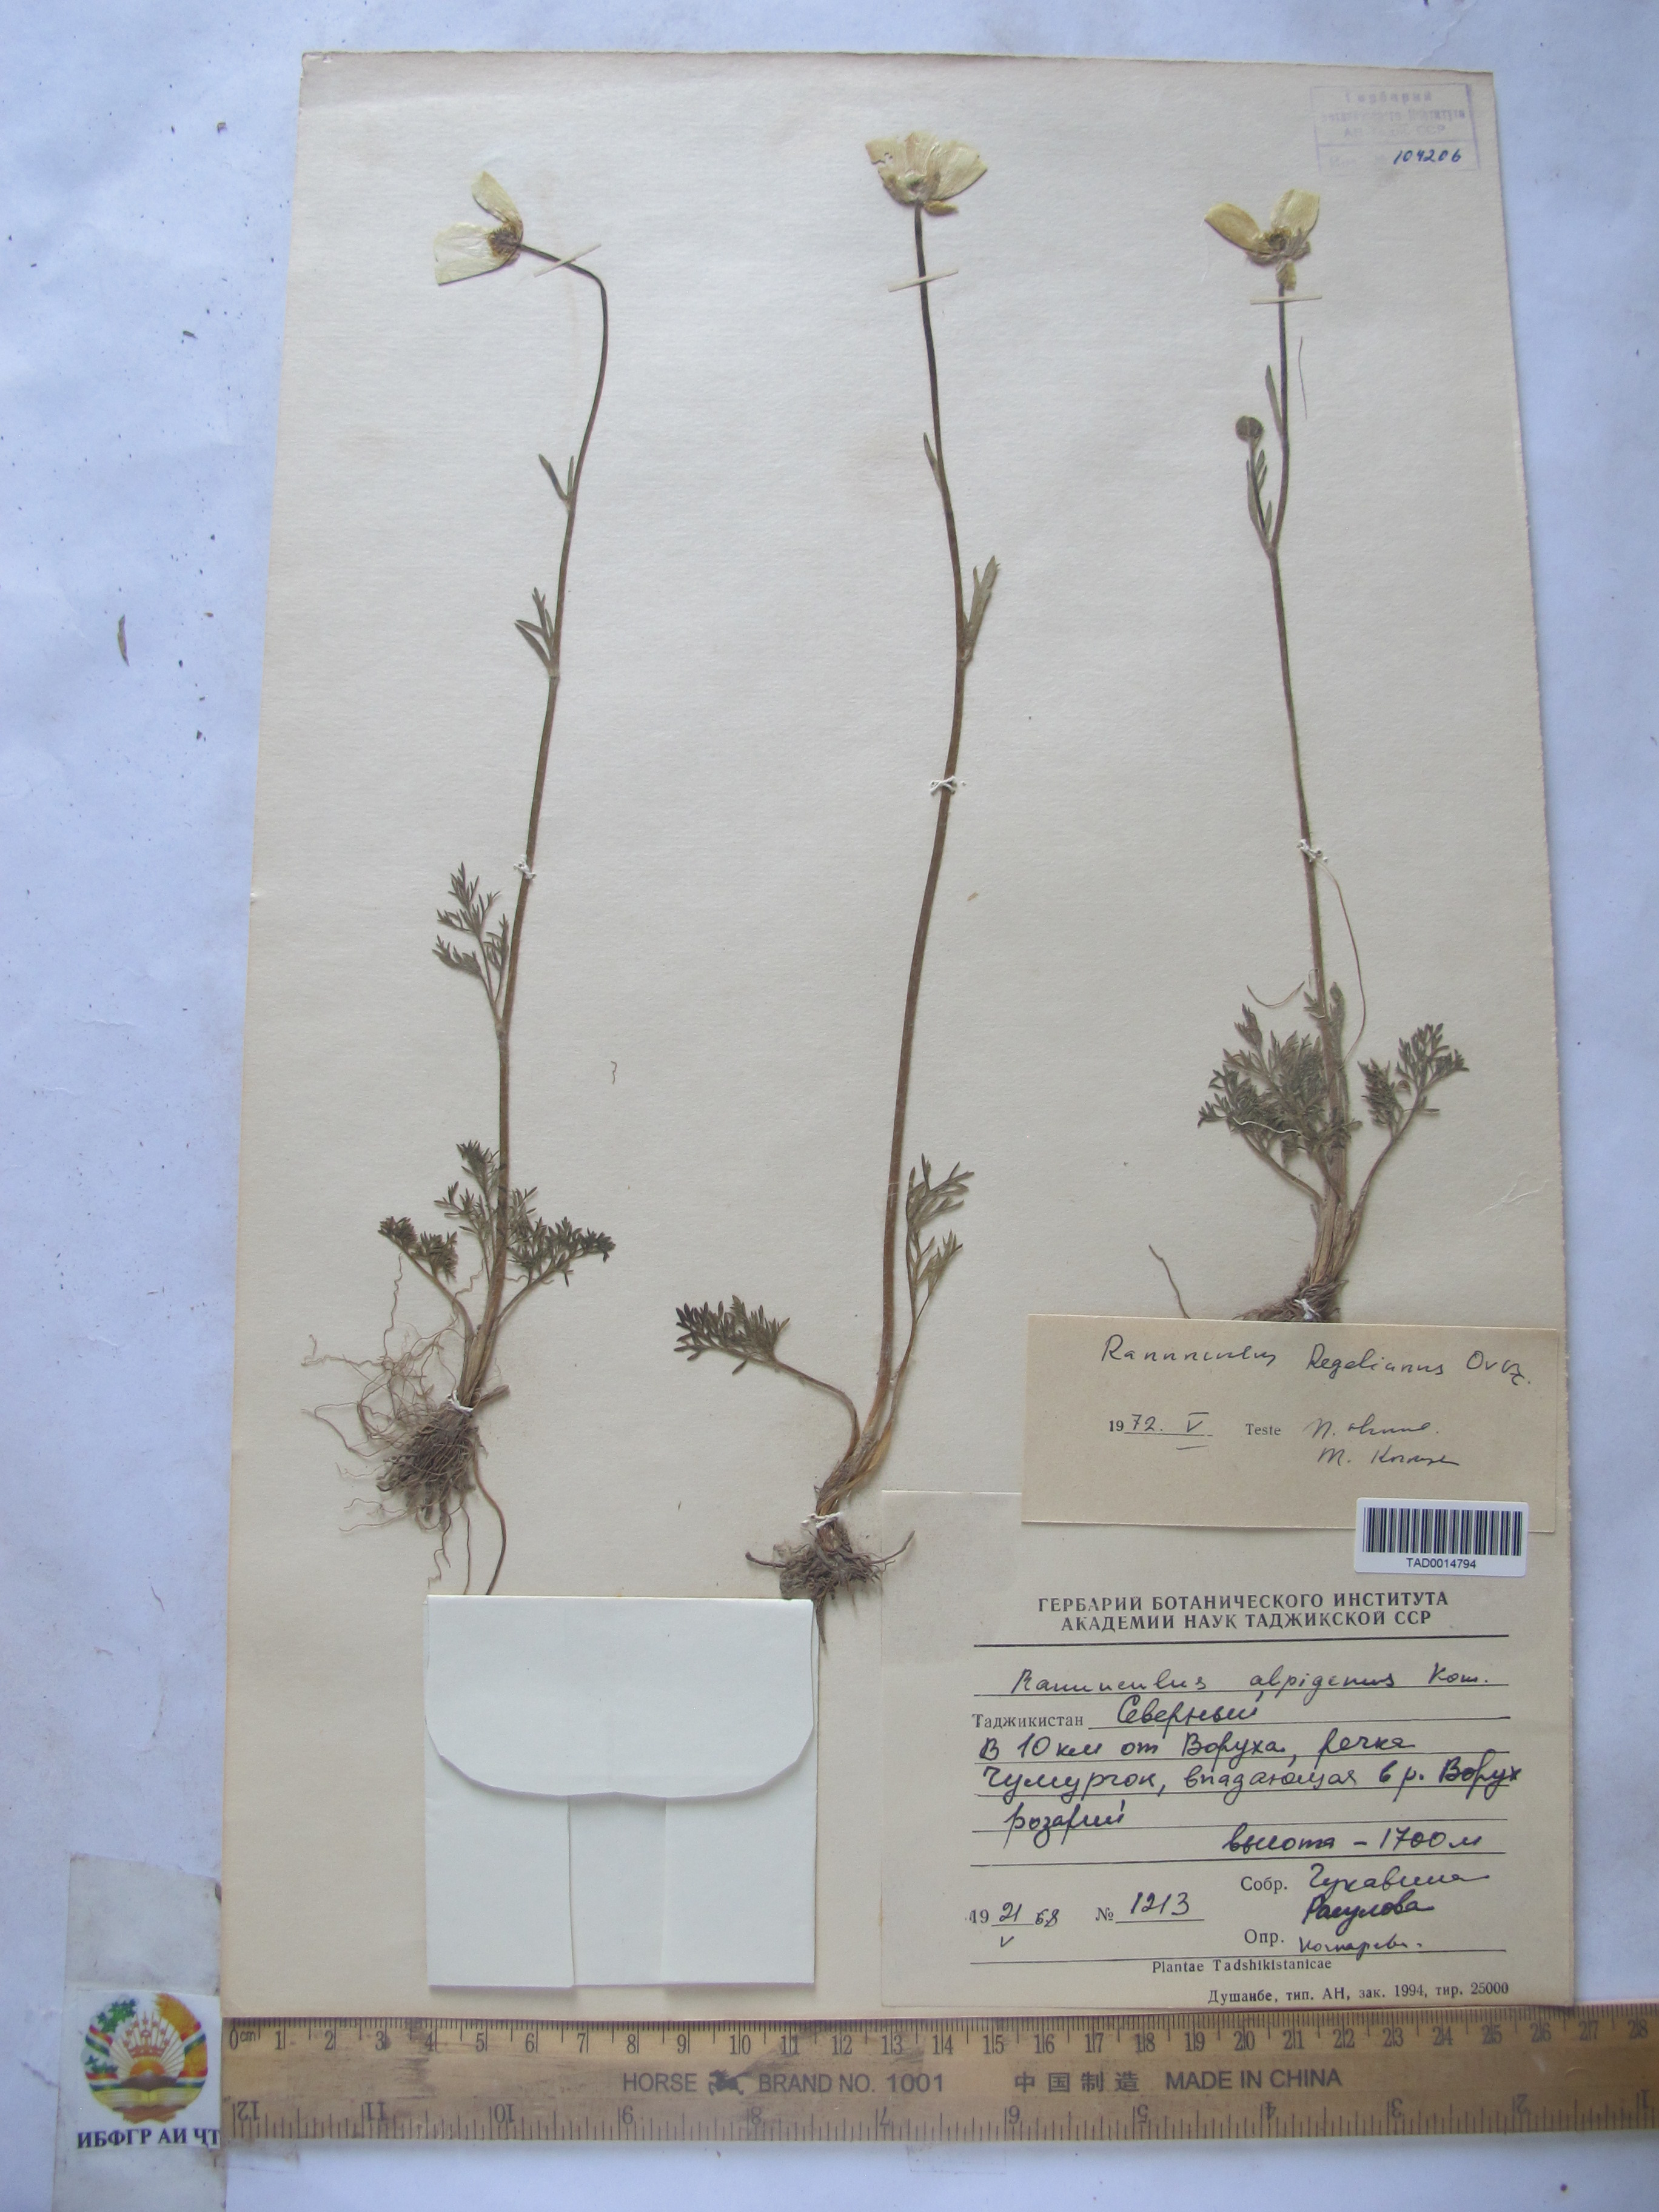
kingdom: Plantae
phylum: Tracheophyta
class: Magnoliopsida
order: Ranunculales
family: Ranunculaceae
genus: Ranunculus
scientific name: Ranunculus alpigenus
